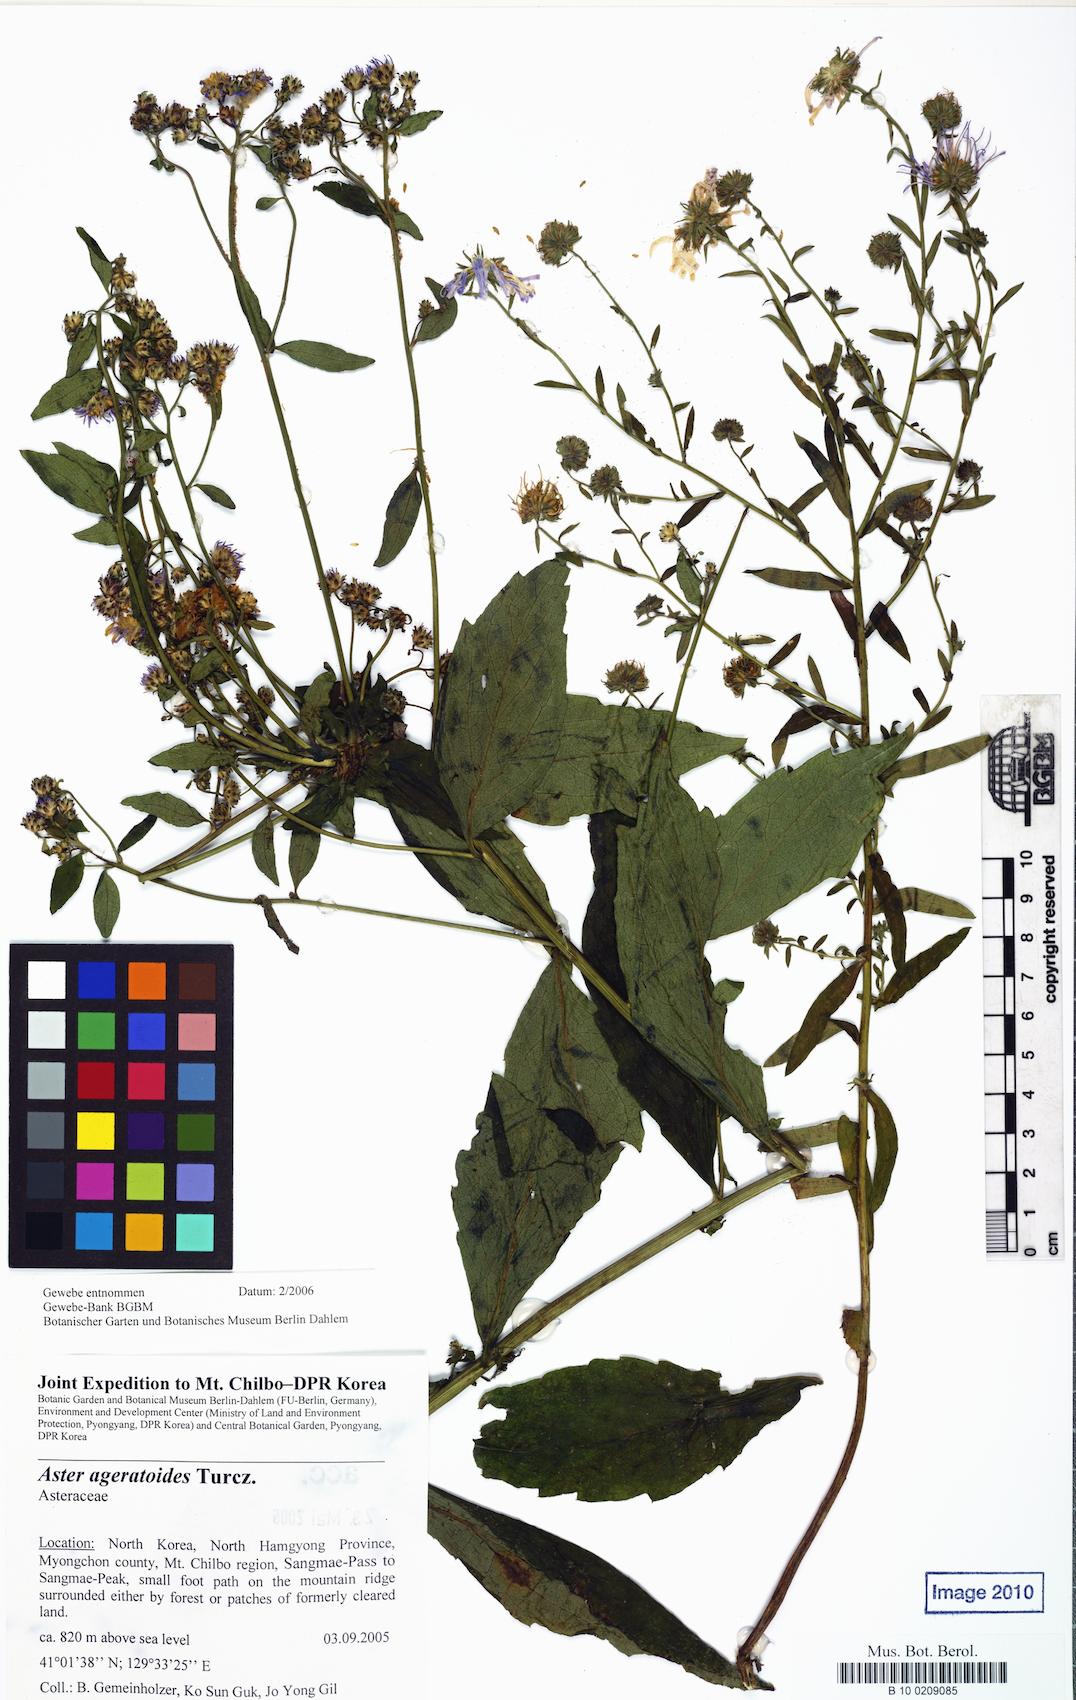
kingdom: Plantae
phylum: Tracheophyta
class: Magnoliopsida
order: Asterales
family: Asteraceae
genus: Aster
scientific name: Aster ageratoides
